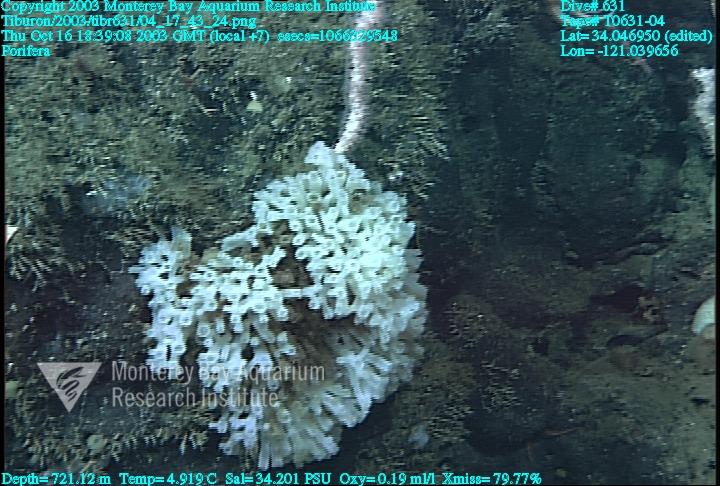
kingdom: Animalia
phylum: Porifera
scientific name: Porifera
